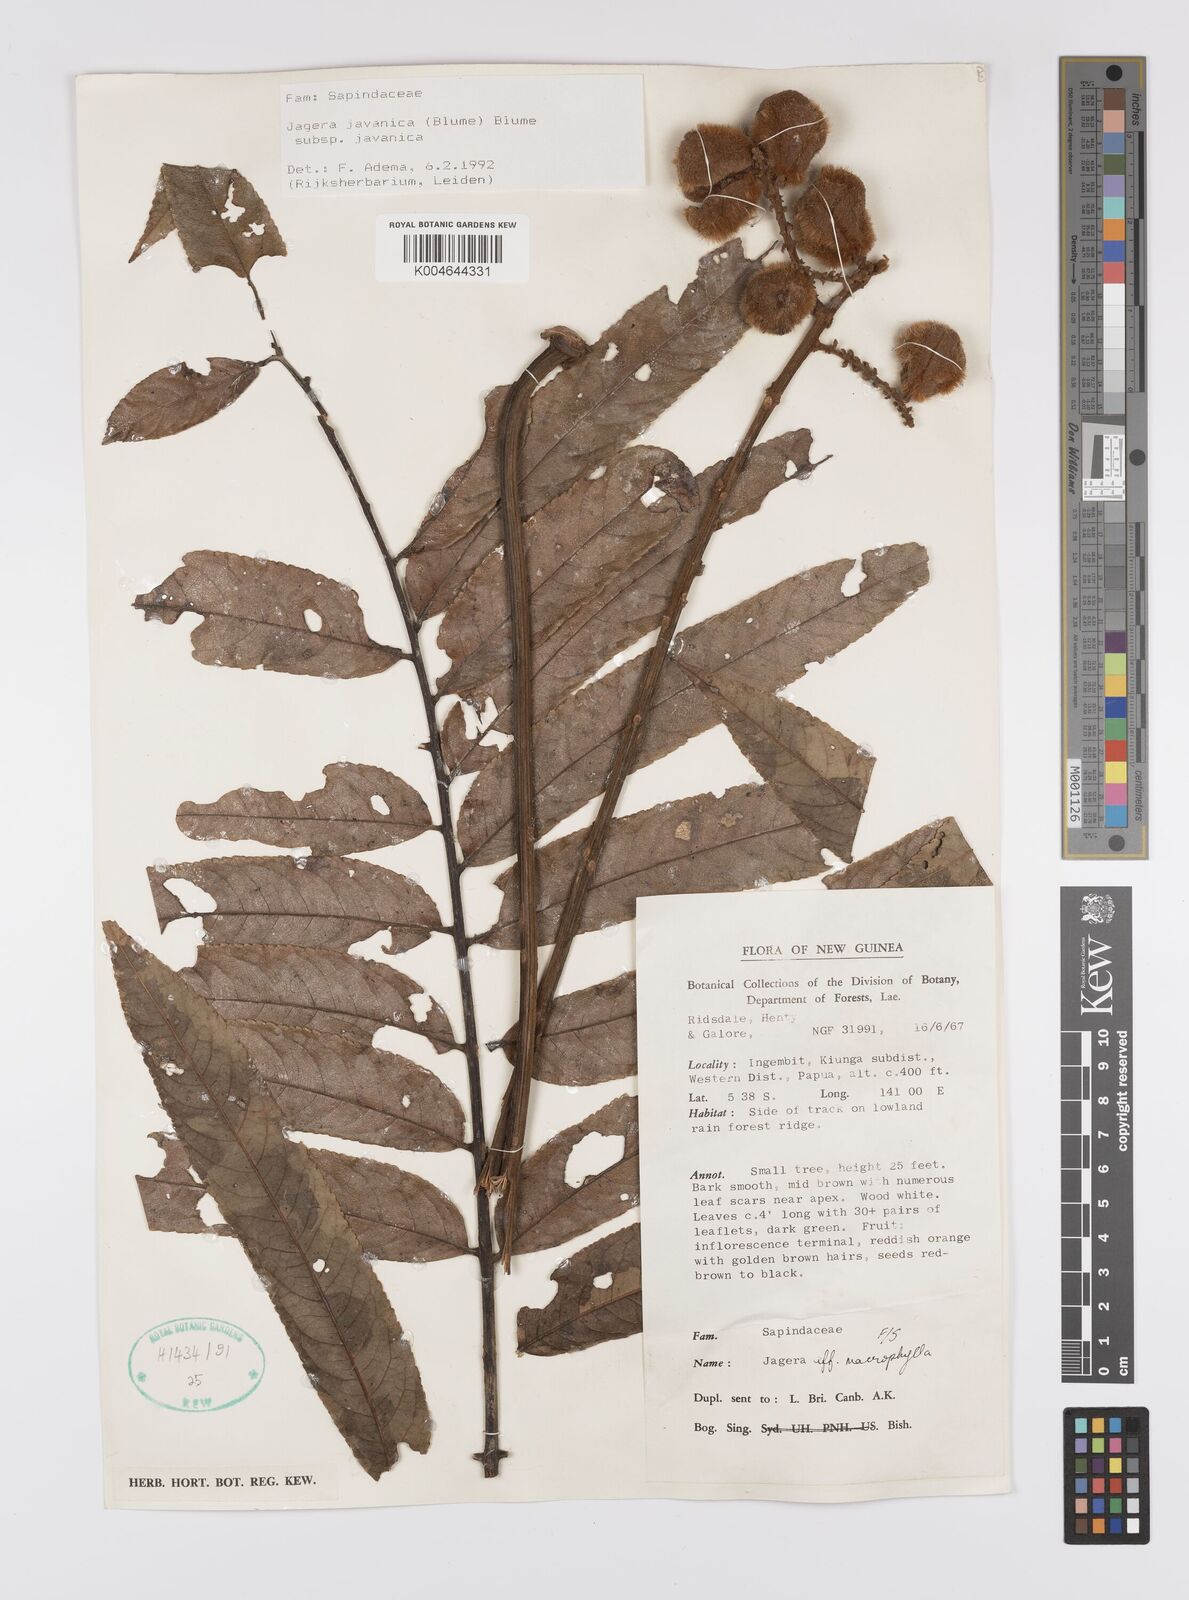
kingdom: Plantae
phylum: Tracheophyta
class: Magnoliopsida
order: Sapindales
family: Sapindaceae
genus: Jagera
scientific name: Jagera javanica
